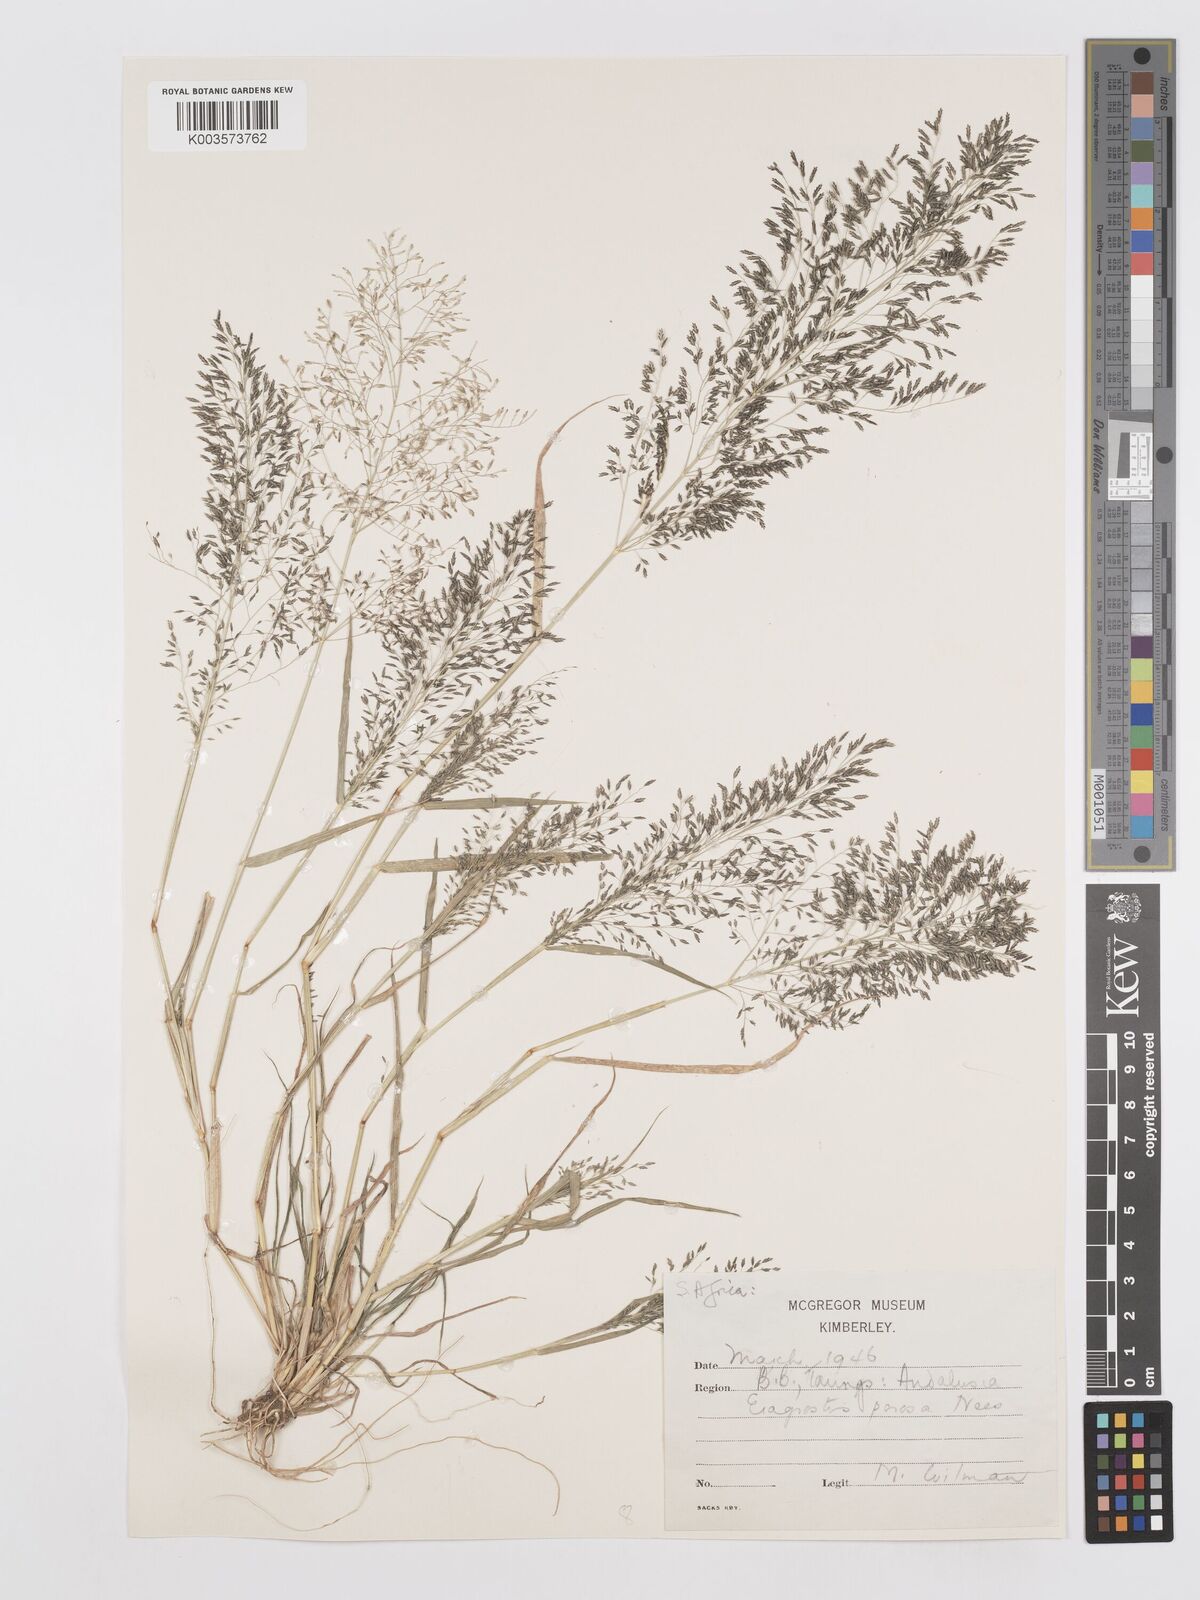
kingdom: Plantae
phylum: Tracheophyta
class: Liliopsida
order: Poales
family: Poaceae
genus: Eragrostis
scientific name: Eragrostis porosa
